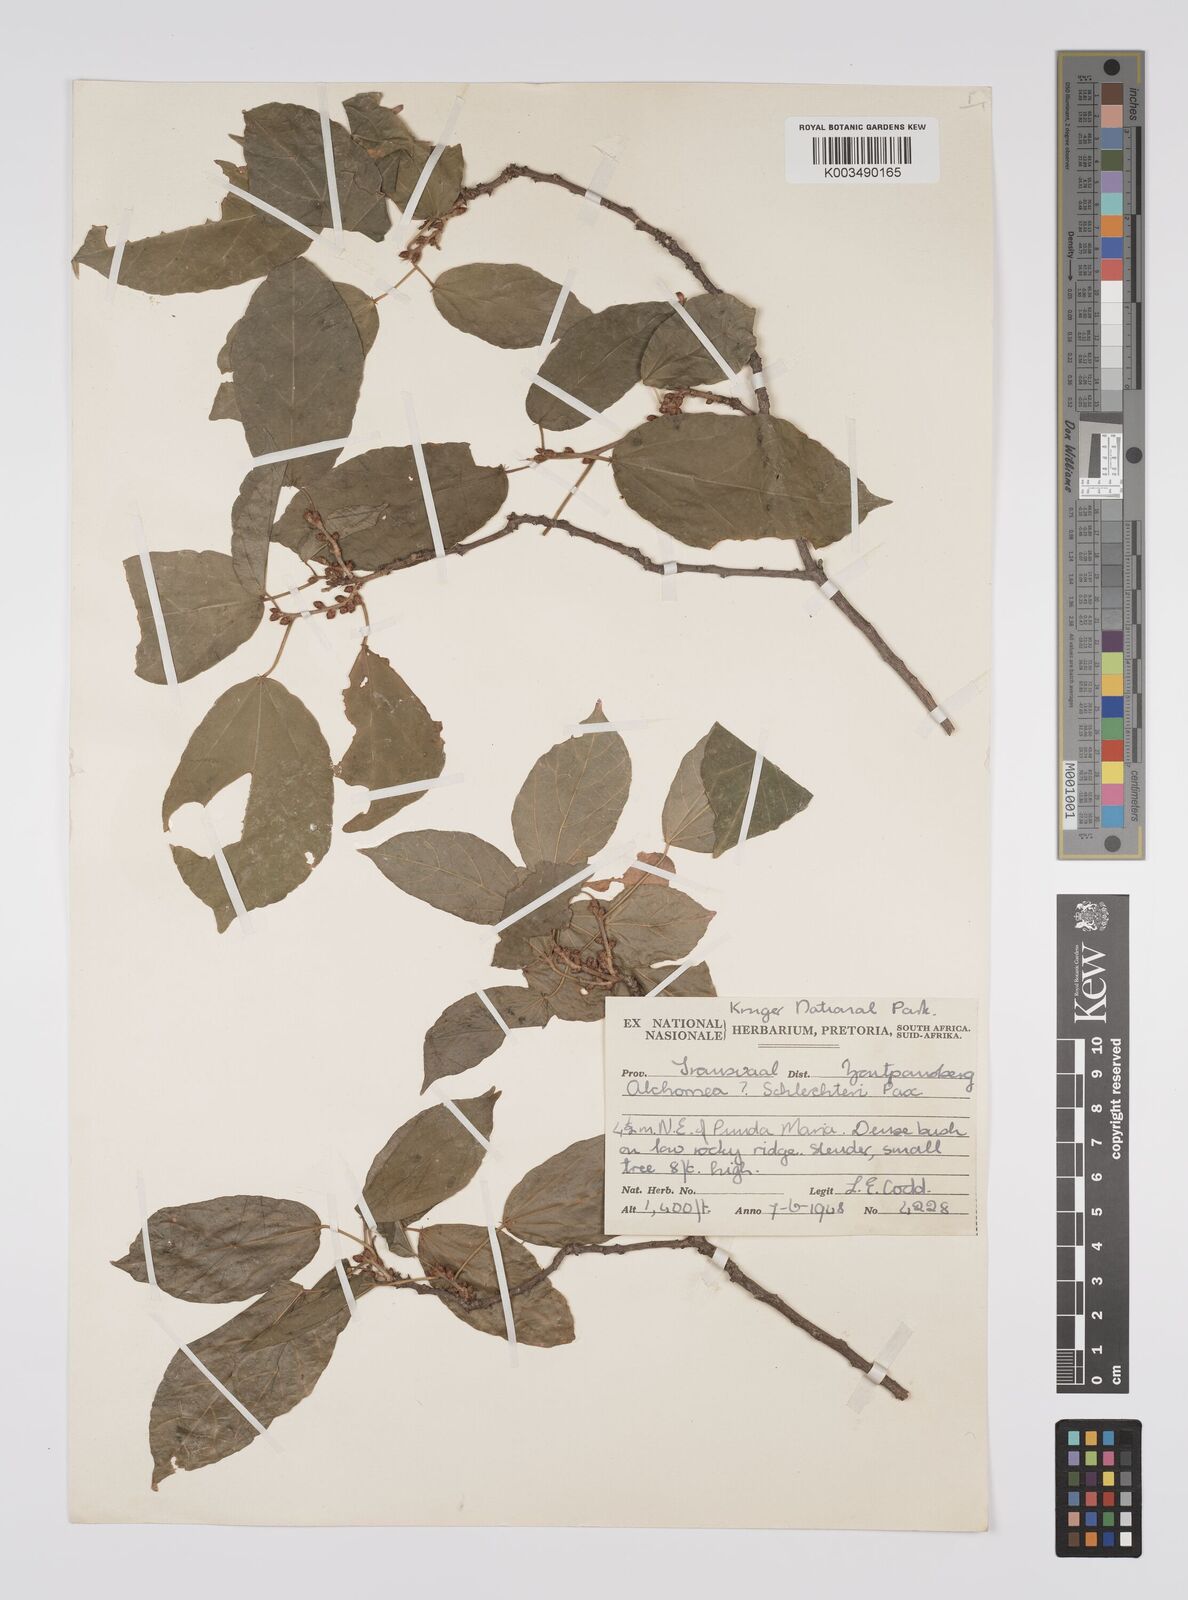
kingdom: Plantae
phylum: Tracheophyta
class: Magnoliopsida
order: Malpighiales
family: Euphorbiaceae
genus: Alchornea
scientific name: Alchornea laxiflora
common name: Lowveld bead-string
